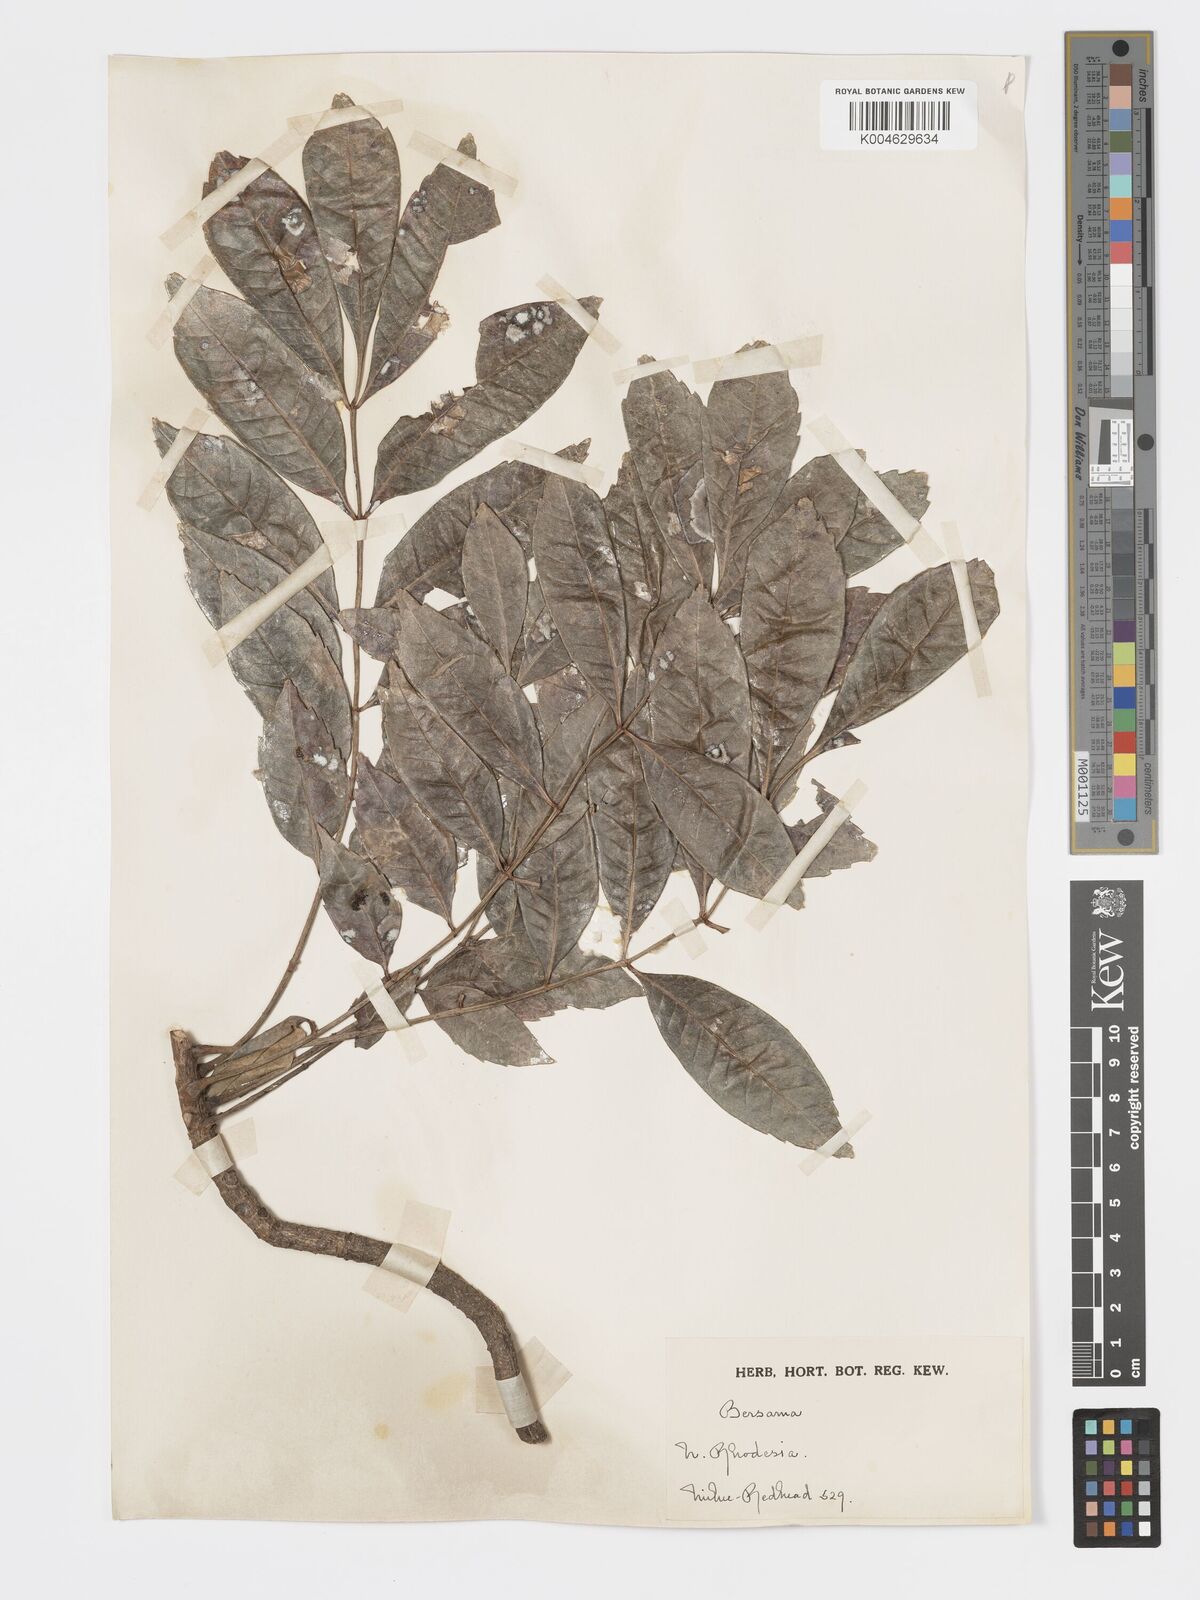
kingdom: Plantae
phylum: Tracheophyta
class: Magnoliopsida
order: Geraniales
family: Melianthaceae
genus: Bersama
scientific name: Bersama
